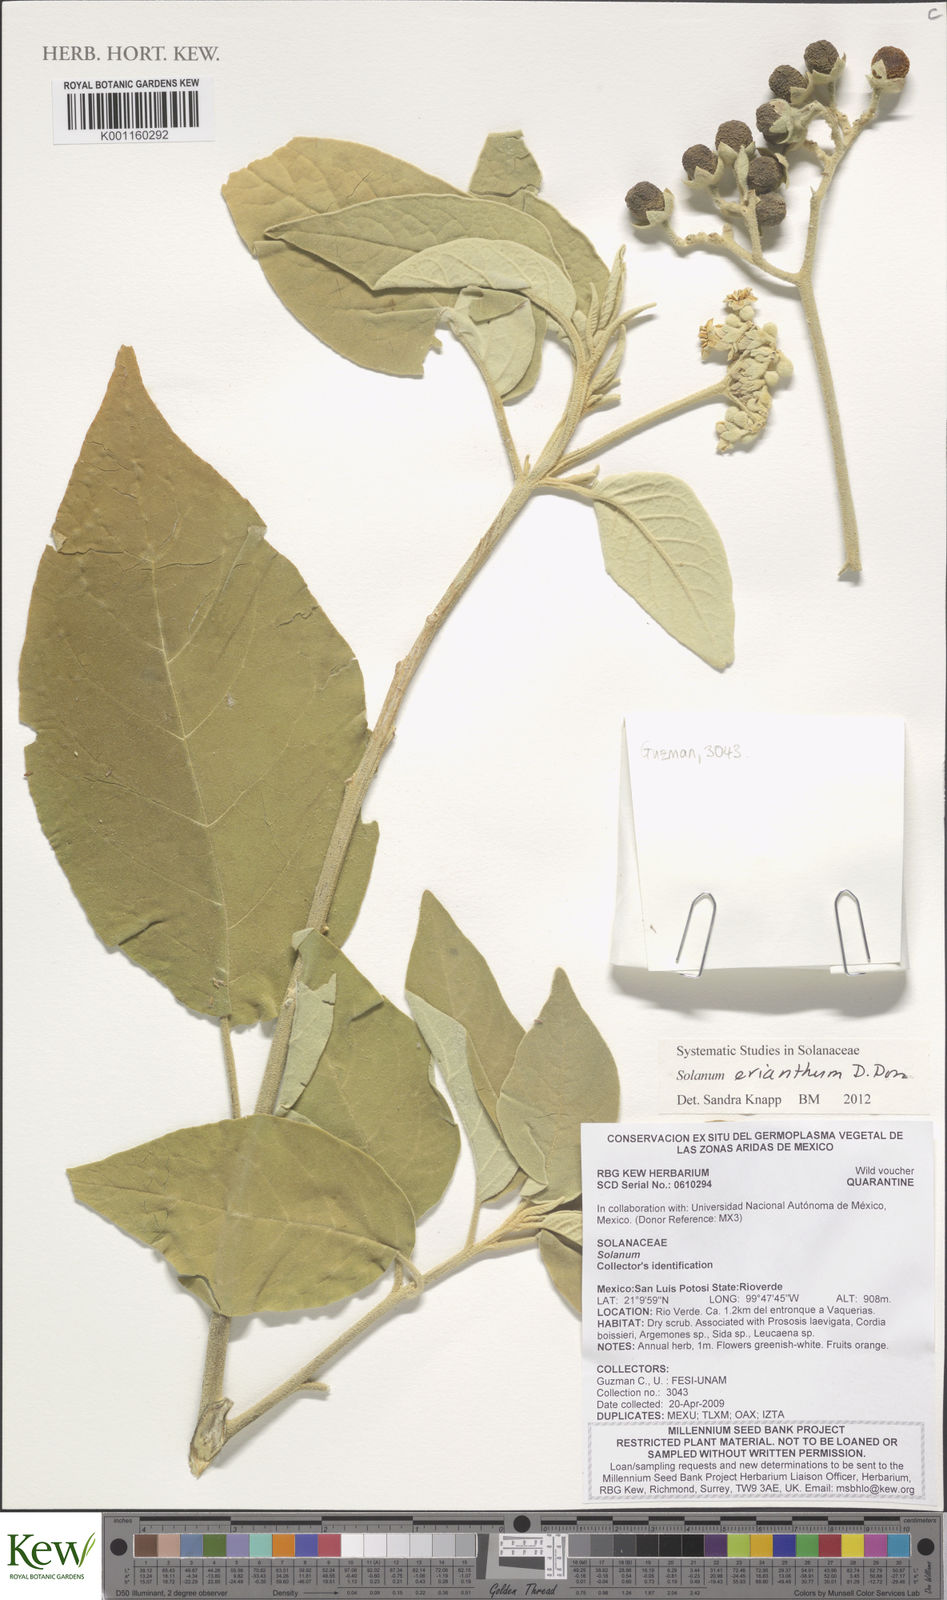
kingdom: Plantae
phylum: Tracheophyta
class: Magnoliopsida
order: Solanales
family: Solanaceae
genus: Solanum
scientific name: Solanum erianthum
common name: Tobacco-tree
